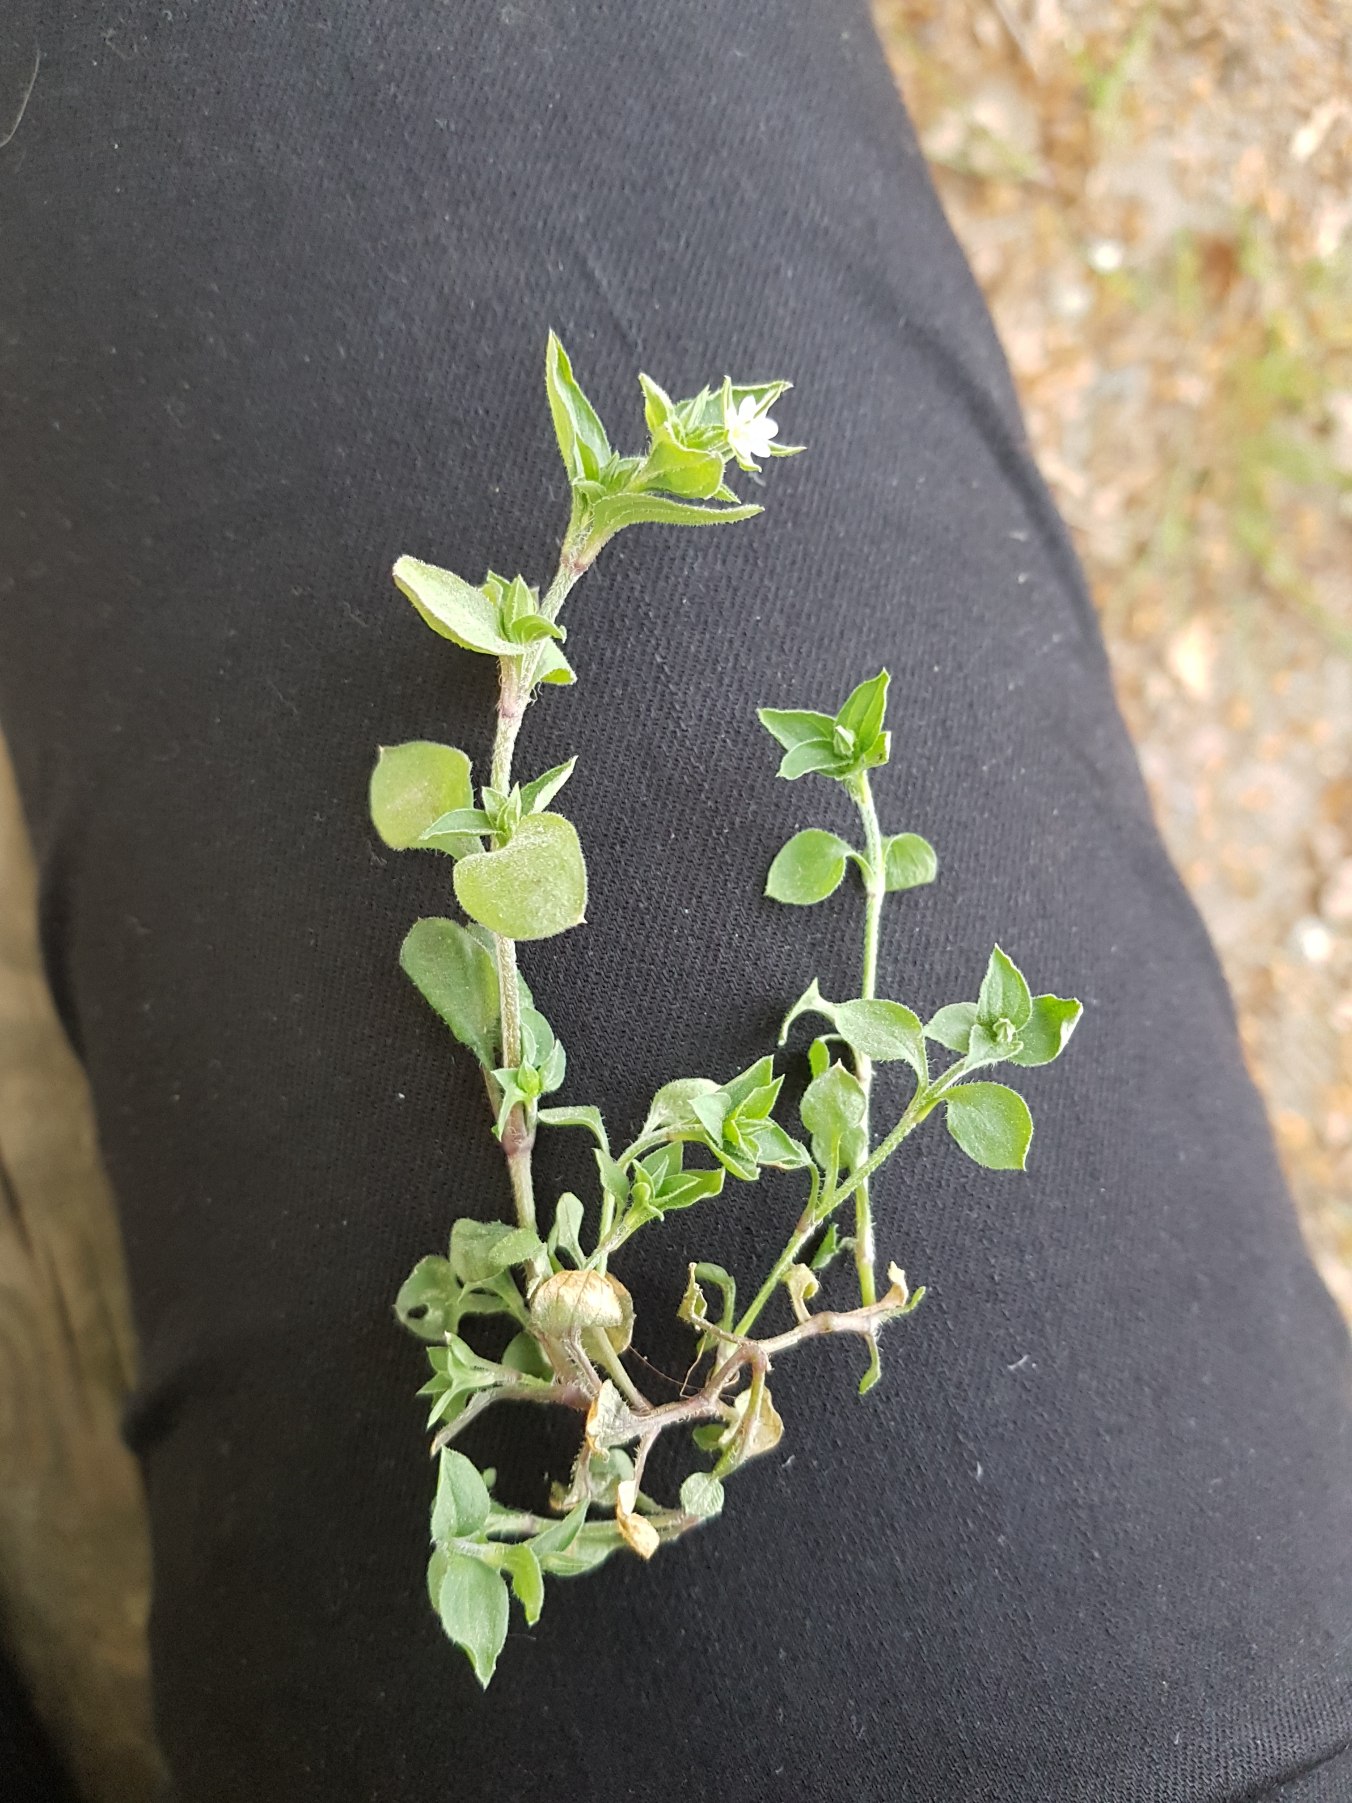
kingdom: Plantae
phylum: Tracheophyta
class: Magnoliopsida
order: Caryophyllales
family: Caryophyllaceae
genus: Moehringia
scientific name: Moehringia trinervia
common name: Skovarve
